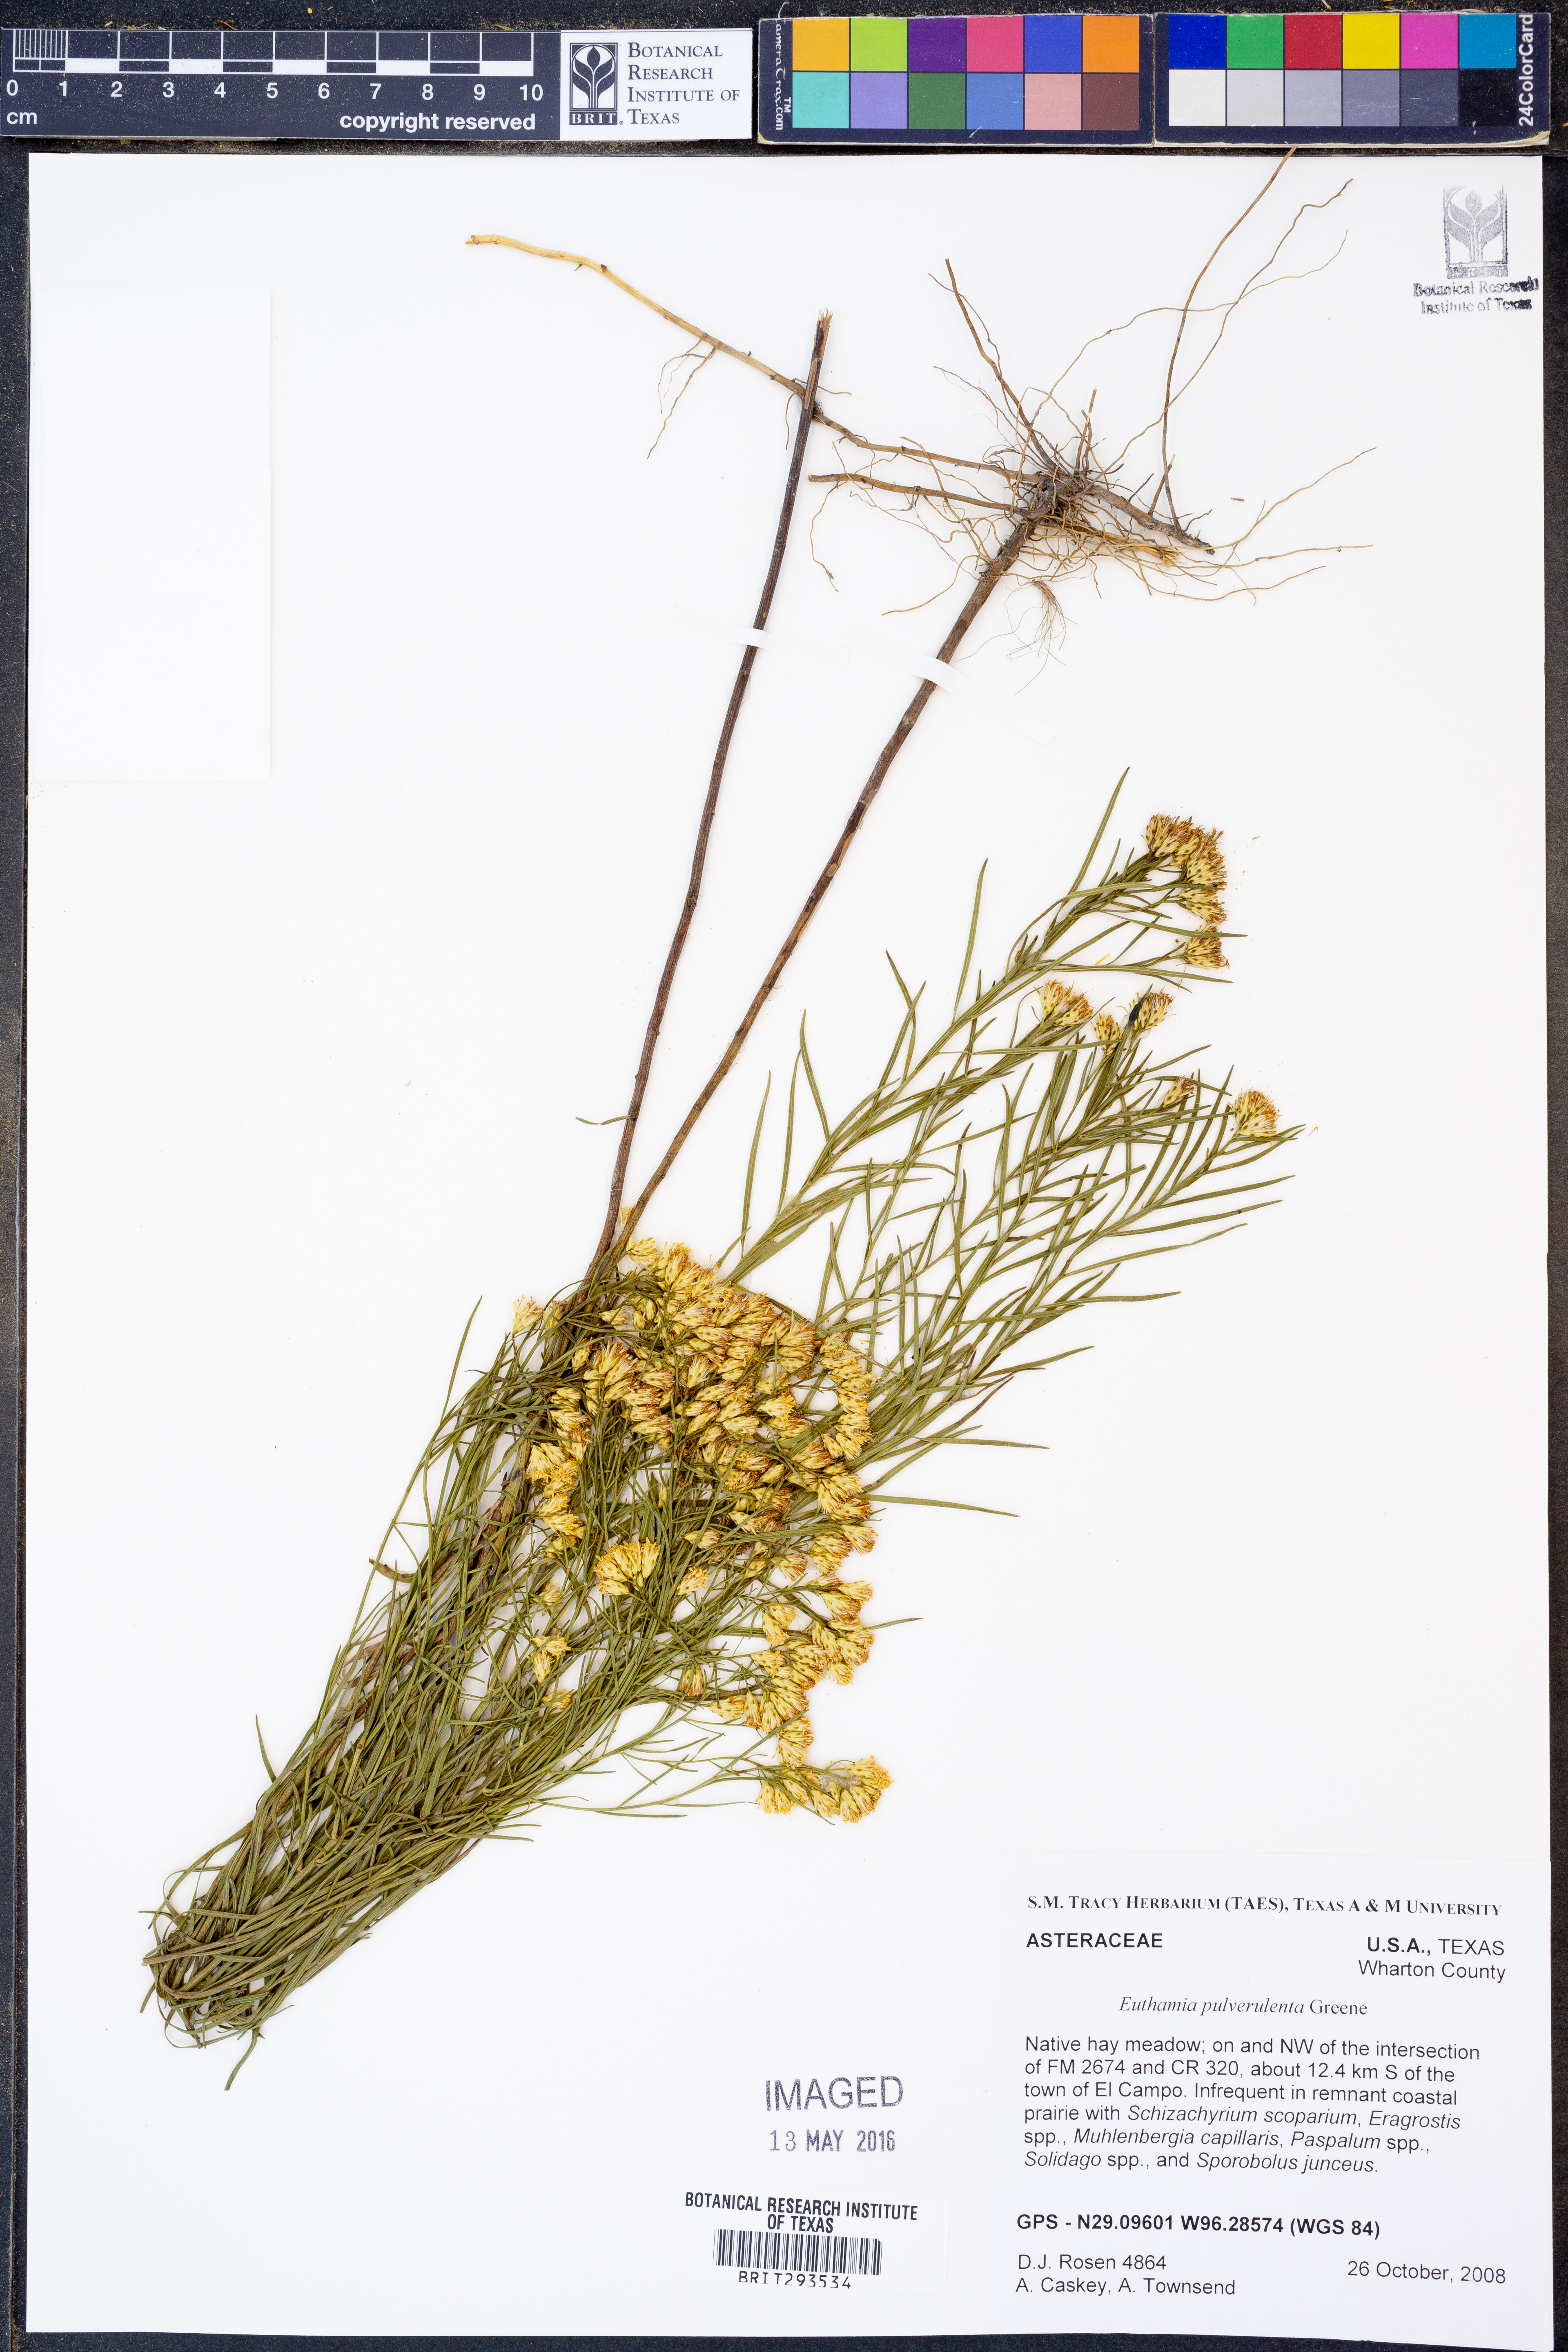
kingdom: Plantae
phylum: Tracheophyta
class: Magnoliopsida
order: Asterales
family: Asteraceae
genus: Euthamia
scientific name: Euthamia pulverulenta
